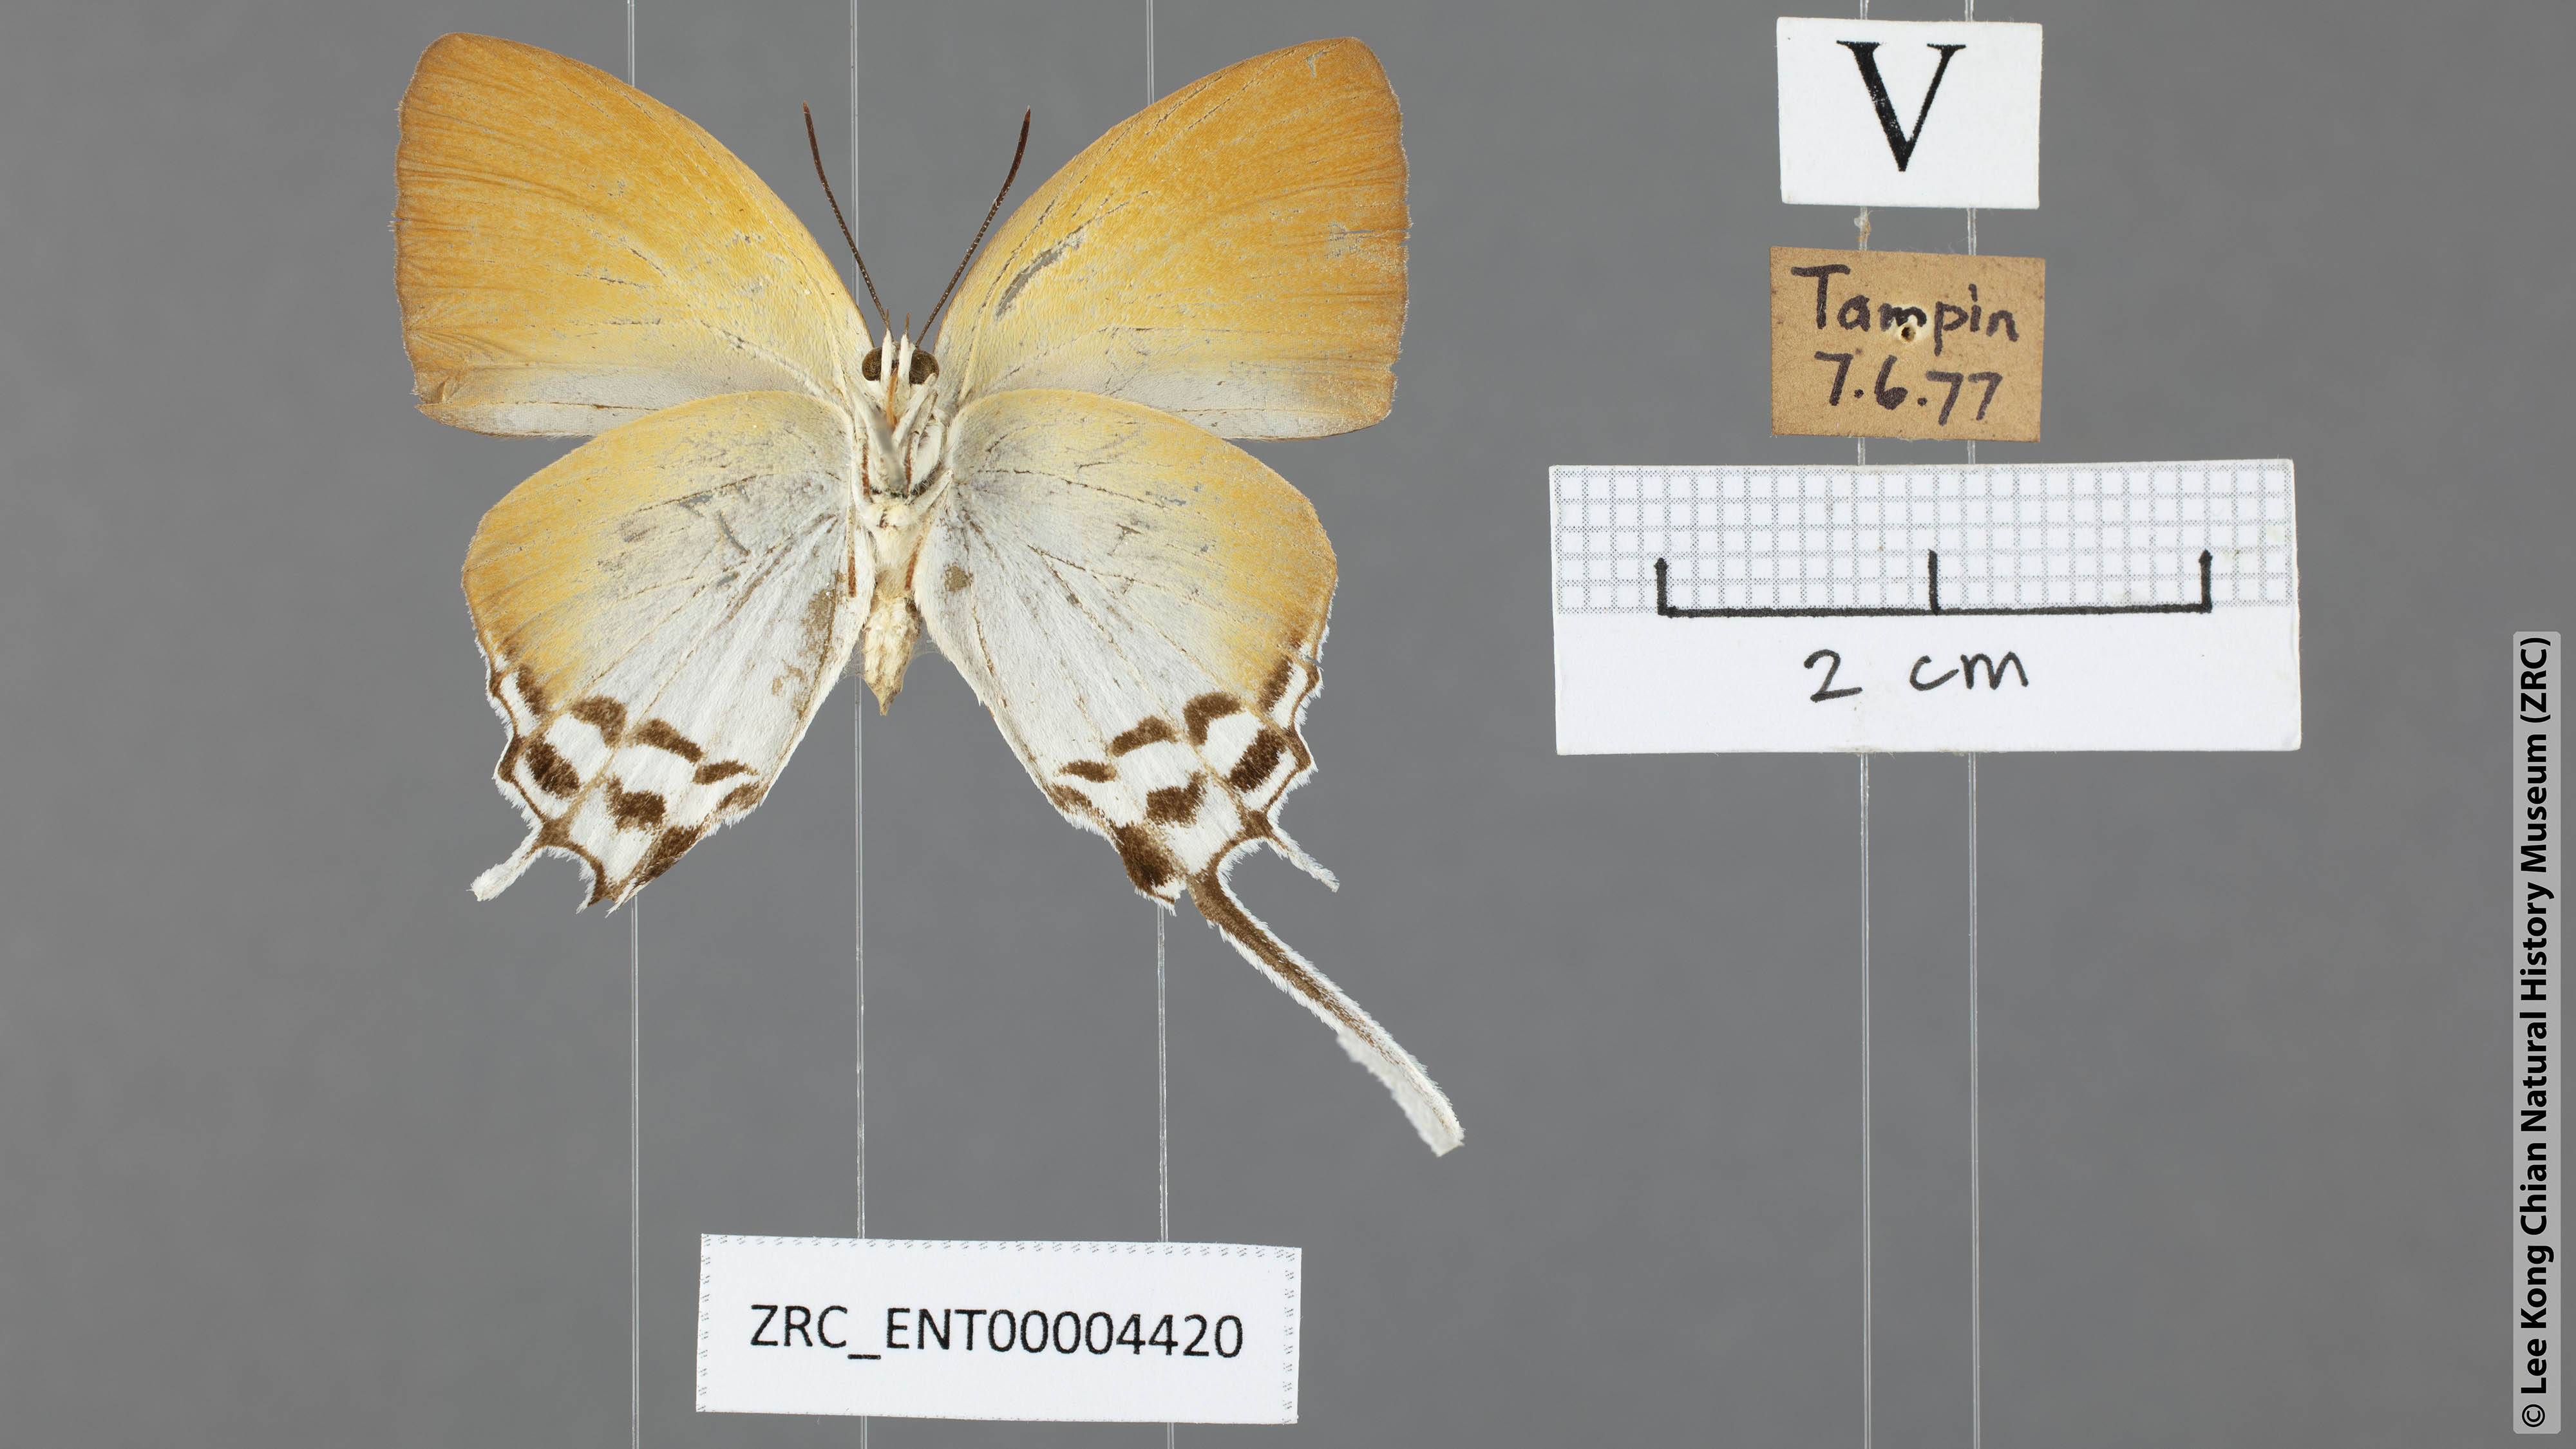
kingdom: Animalia
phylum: Arthropoda
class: Insecta
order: Lepidoptera
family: Lycaenidae
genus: Neocheritra
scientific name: Neocheritra amrita
